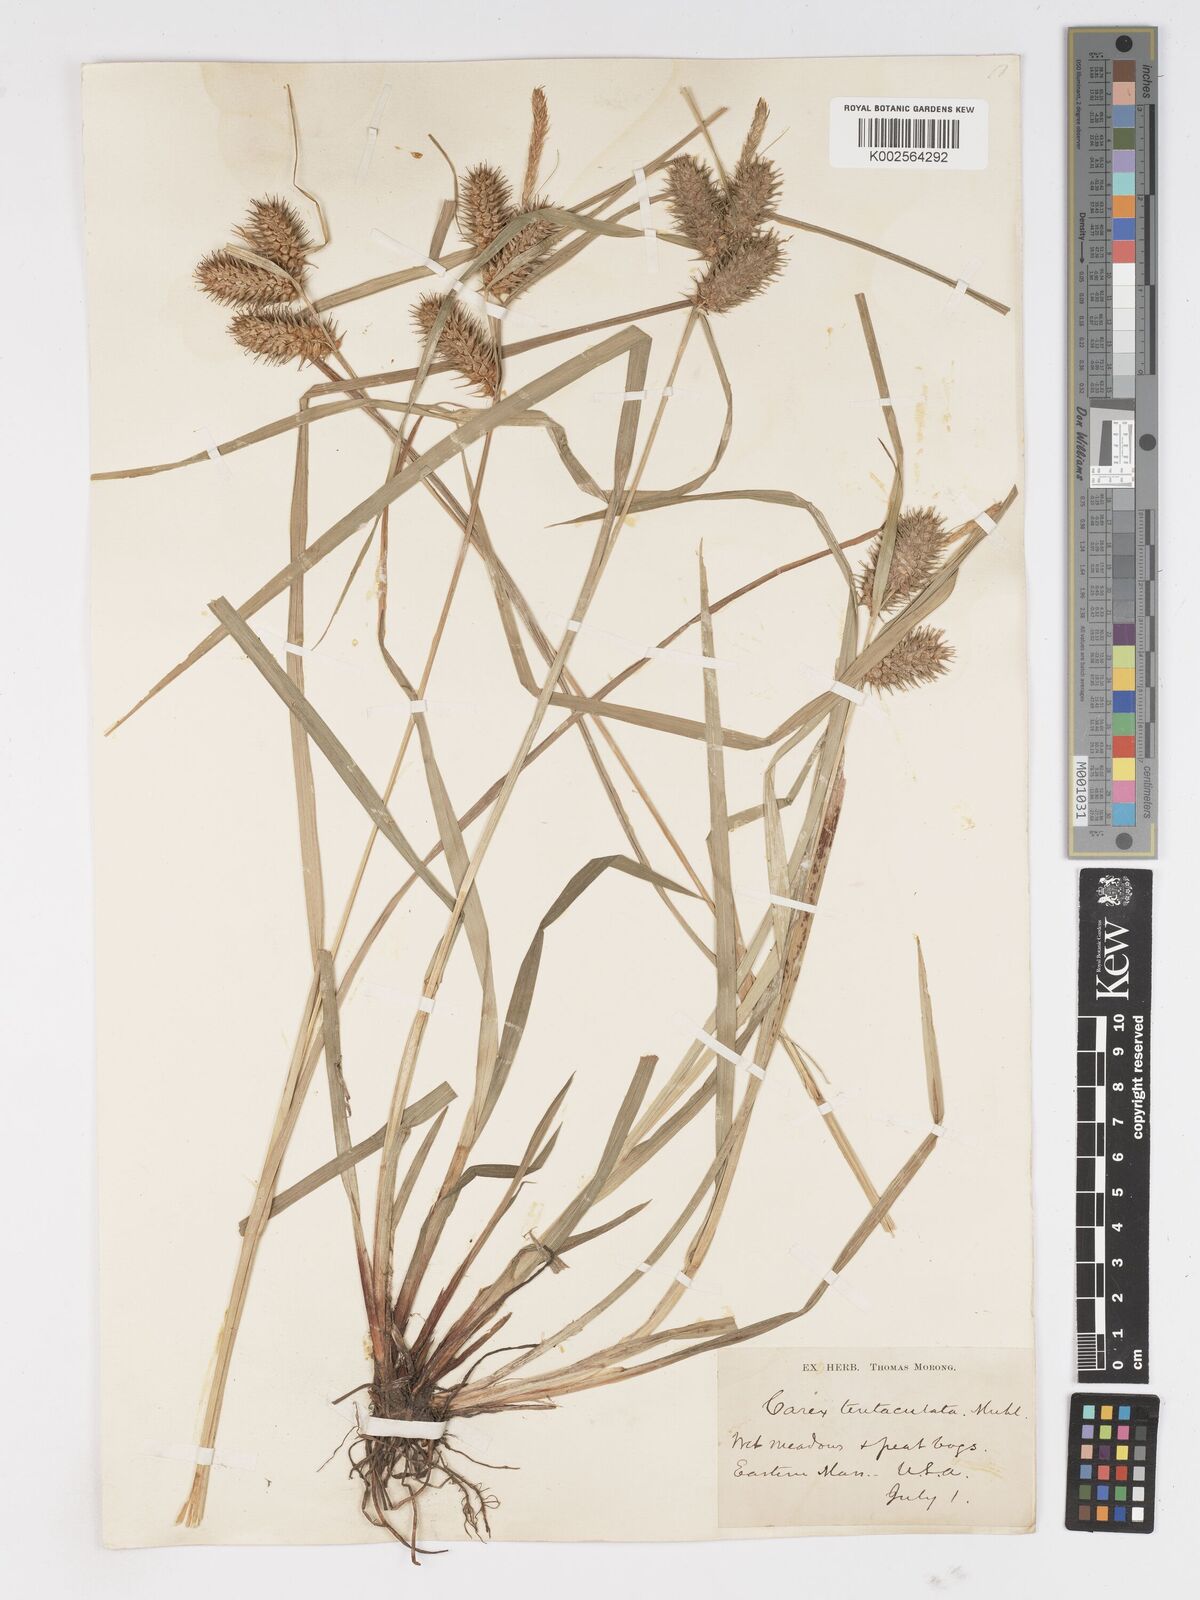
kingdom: Plantae
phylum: Tracheophyta
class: Liliopsida
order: Poales
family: Cyperaceae
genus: Carex
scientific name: Carex lurida
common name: Sallow sedge
